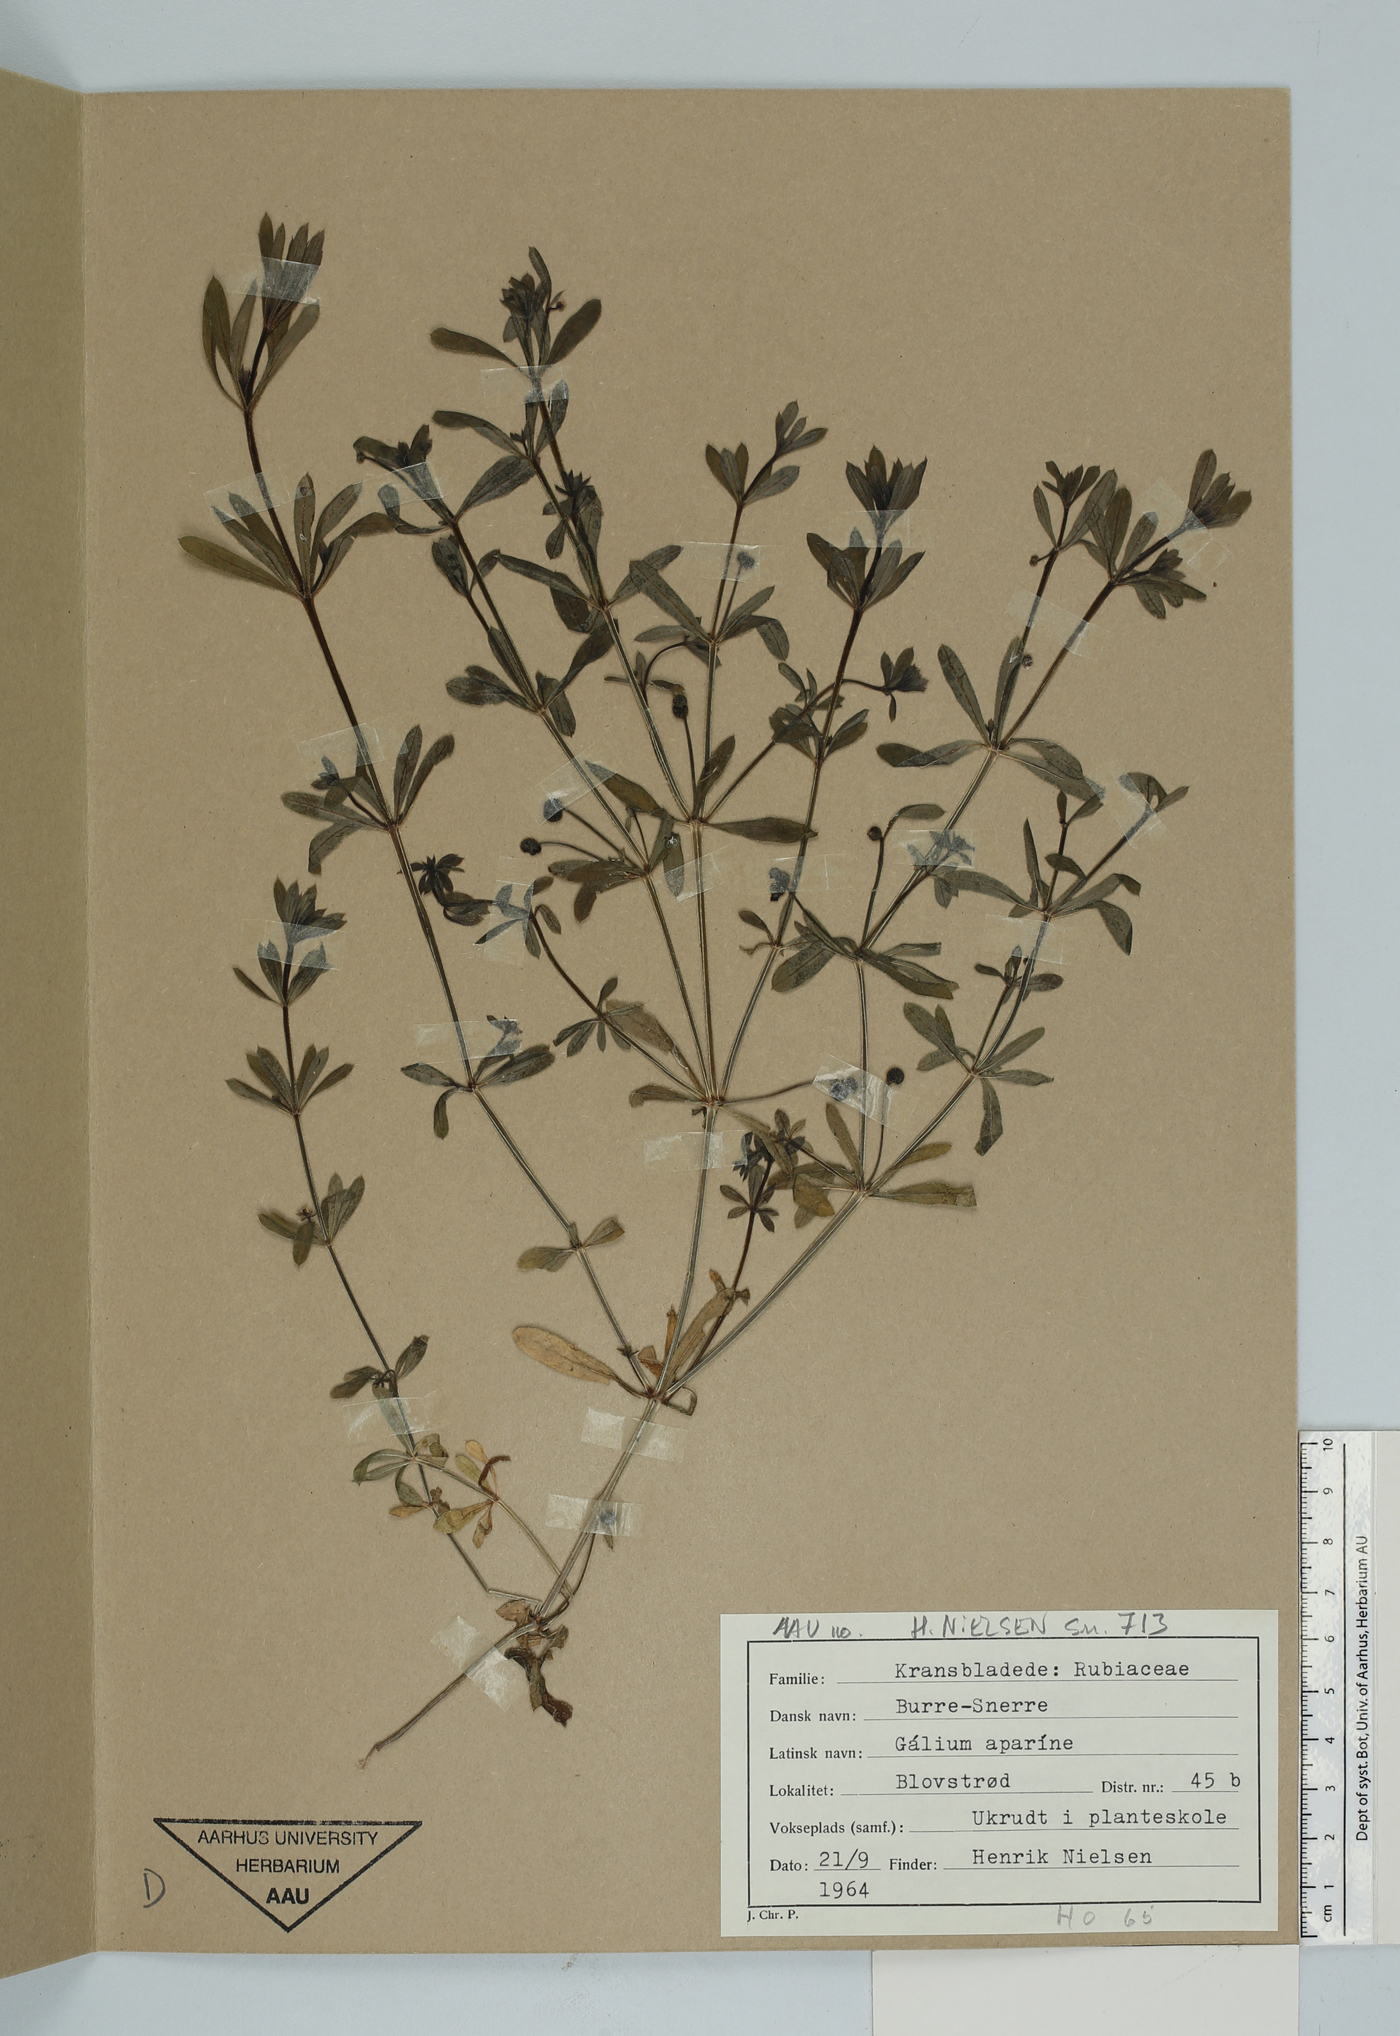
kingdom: Plantae
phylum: Tracheophyta
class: Magnoliopsida
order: Gentianales
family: Rubiaceae
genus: Galium
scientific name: Galium aparine
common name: Cleavers
